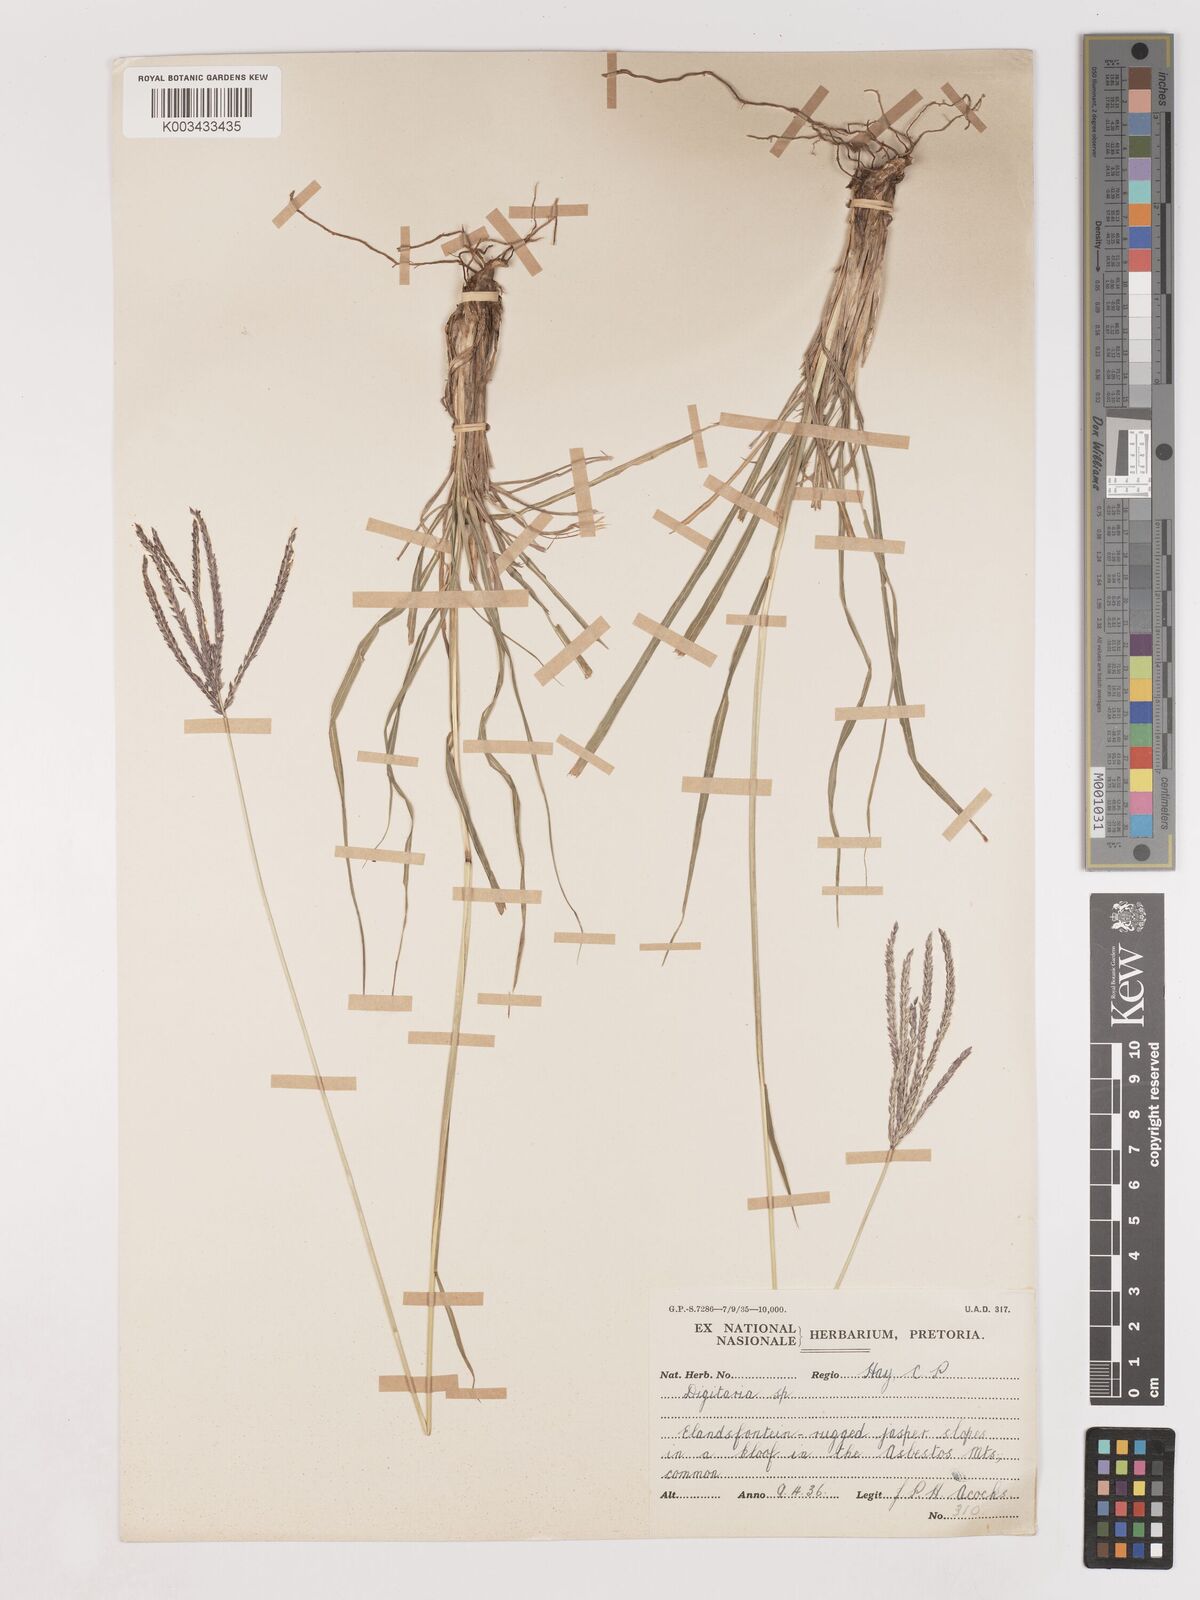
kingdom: Plantae
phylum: Tracheophyta
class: Liliopsida
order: Poales
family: Poaceae
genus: Digitaria
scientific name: Digitaria eriantha
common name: Digitgrass
